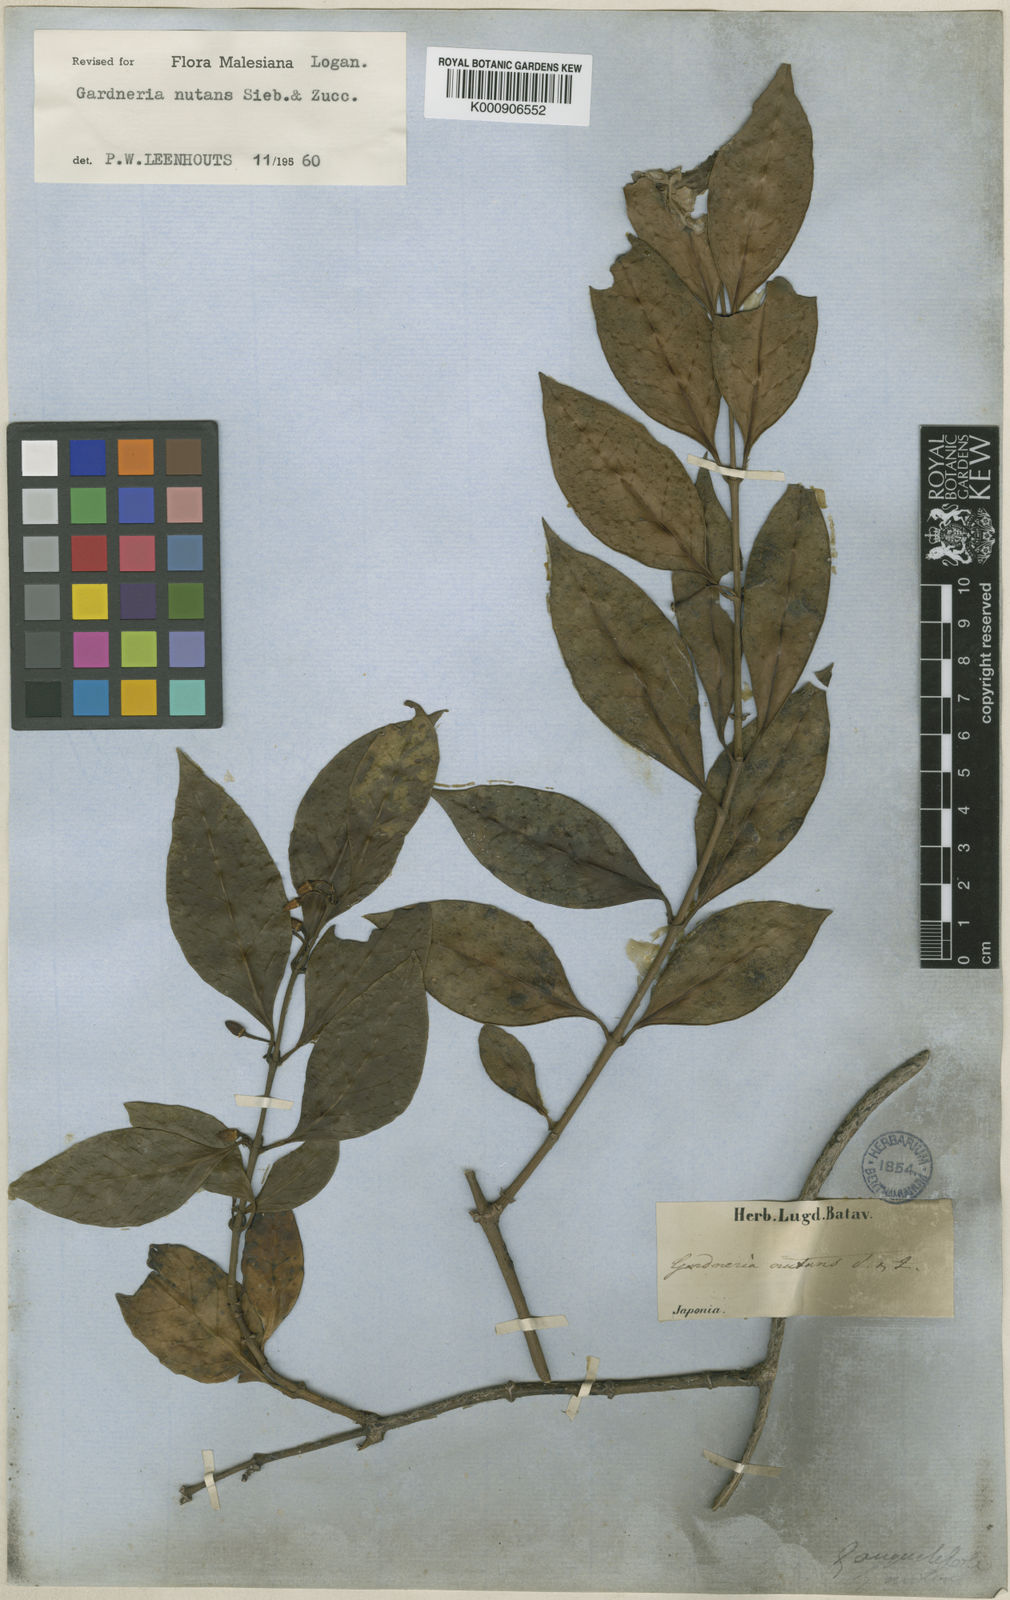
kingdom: Plantae
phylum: Tracheophyta
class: Magnoliopsida
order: Gentianales
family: Loganiaceae
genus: Gardneria
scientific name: Gardneria nutans
